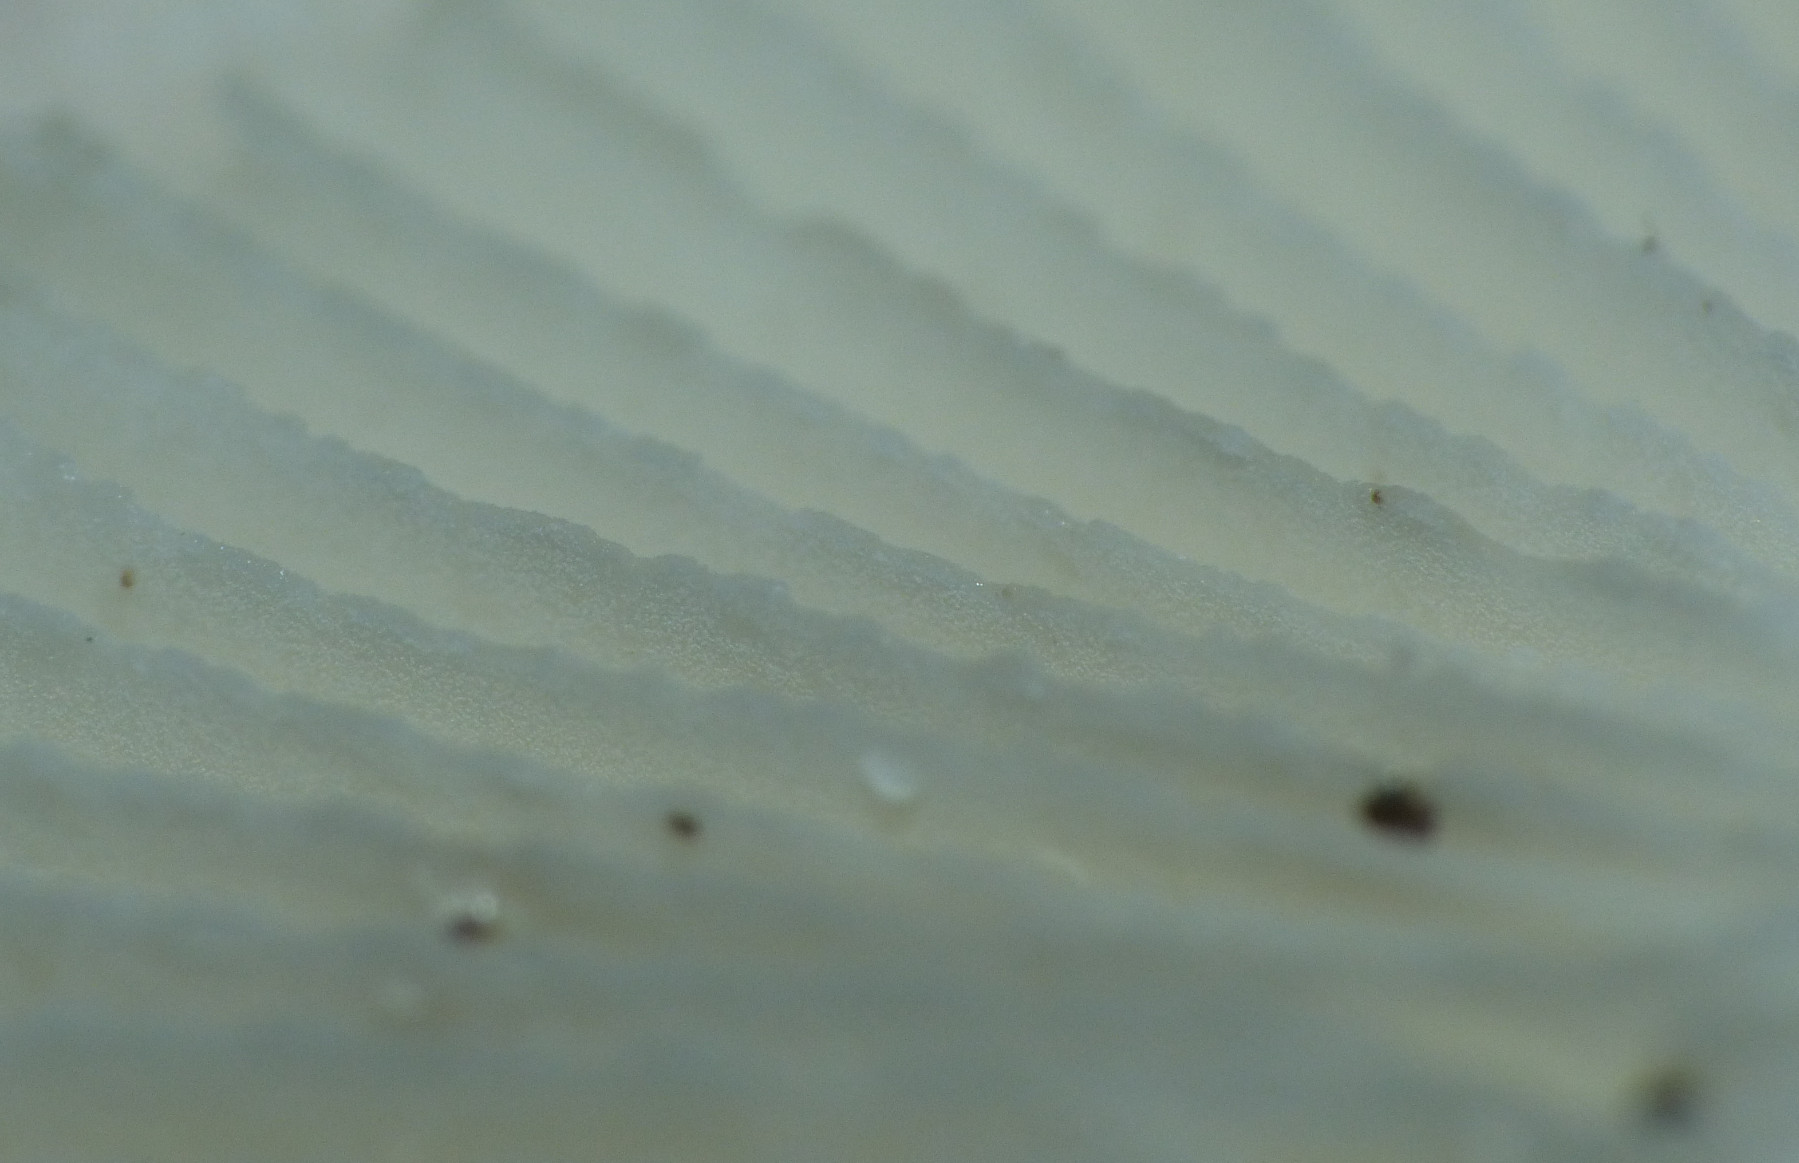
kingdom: Fungi
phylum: Basidiomycota
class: Agaricomycetes
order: Russulales
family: Russulaceae
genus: Russula
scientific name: Russula fragilis
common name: savbladet skørhat
